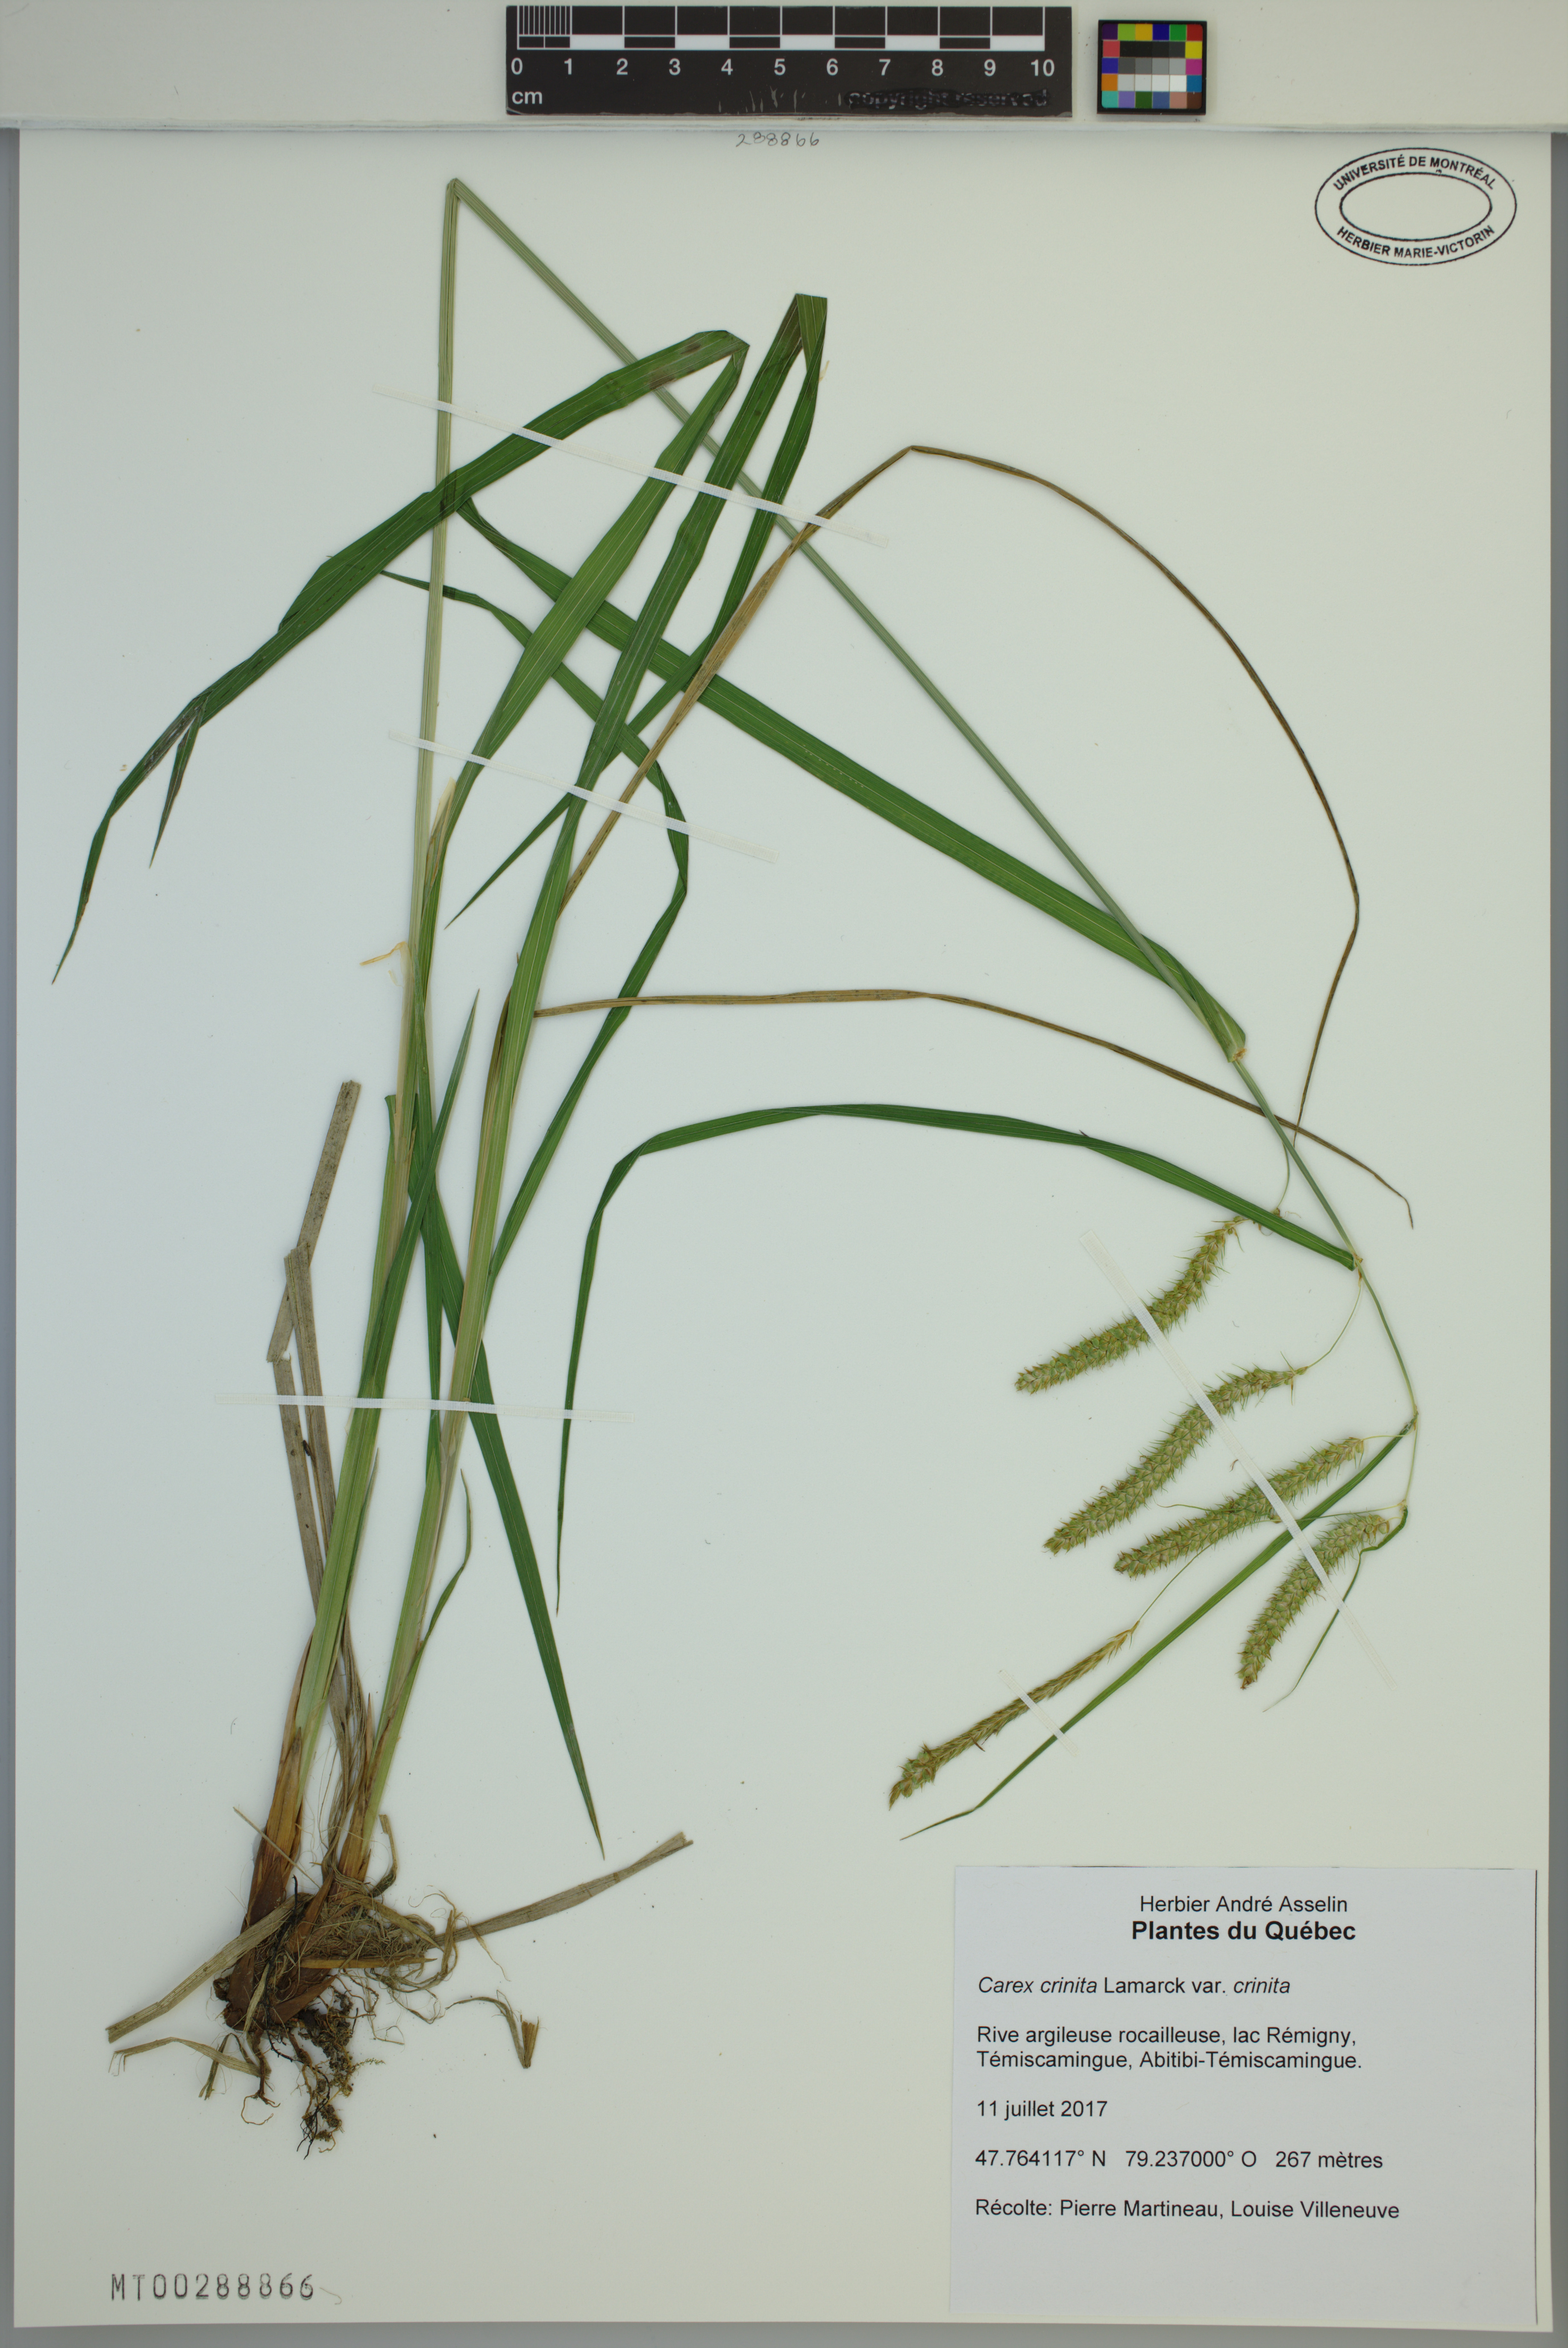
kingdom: Plantae
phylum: Tracheophyta
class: Liliopsida
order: Poales
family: Cyperaceae
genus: Carex
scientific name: Carex crinita
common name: Fringed sedge
